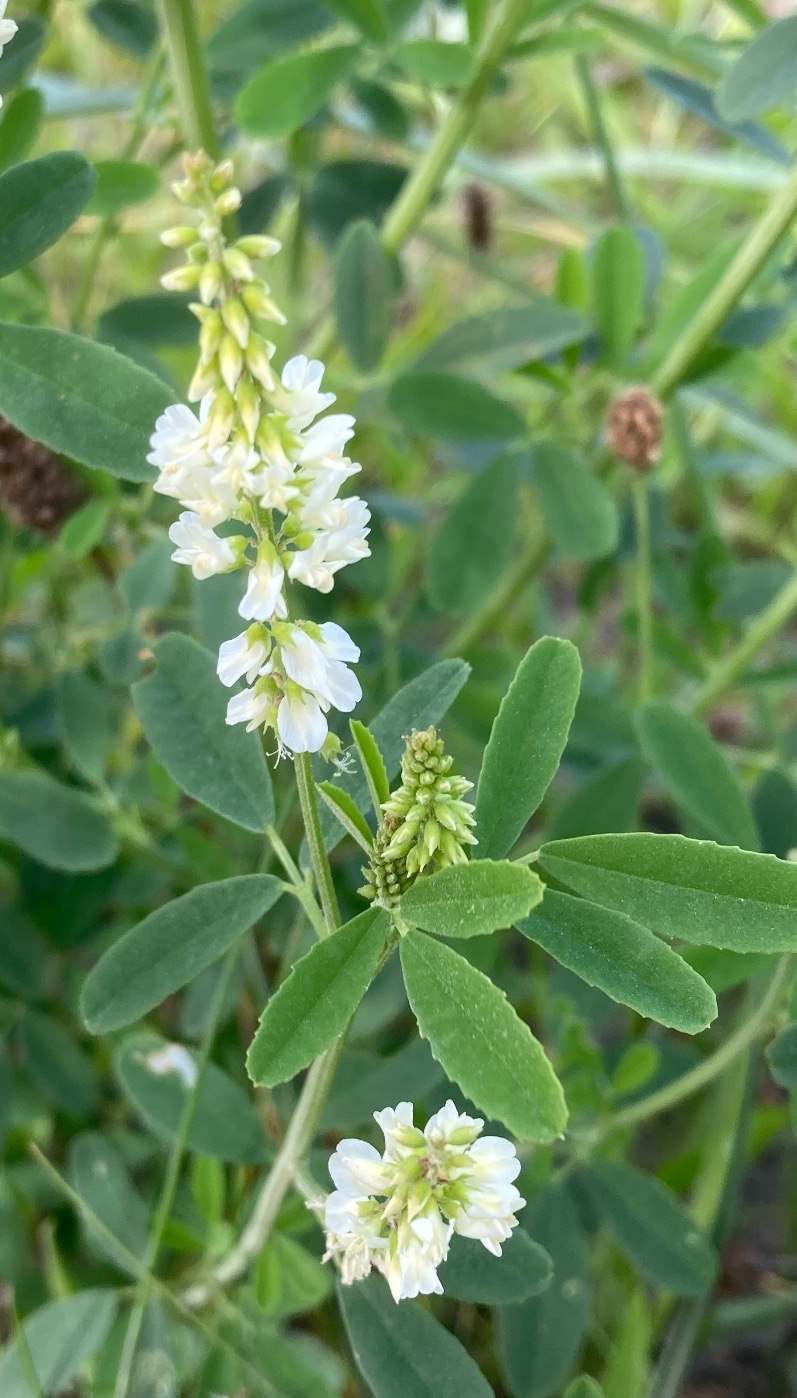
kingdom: Plantae
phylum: Tracheophyta
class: Magnoliopsida
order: Fabales
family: Fabaceae
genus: Melilotus
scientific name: Melilotus albus
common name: Hvid stenkløver
